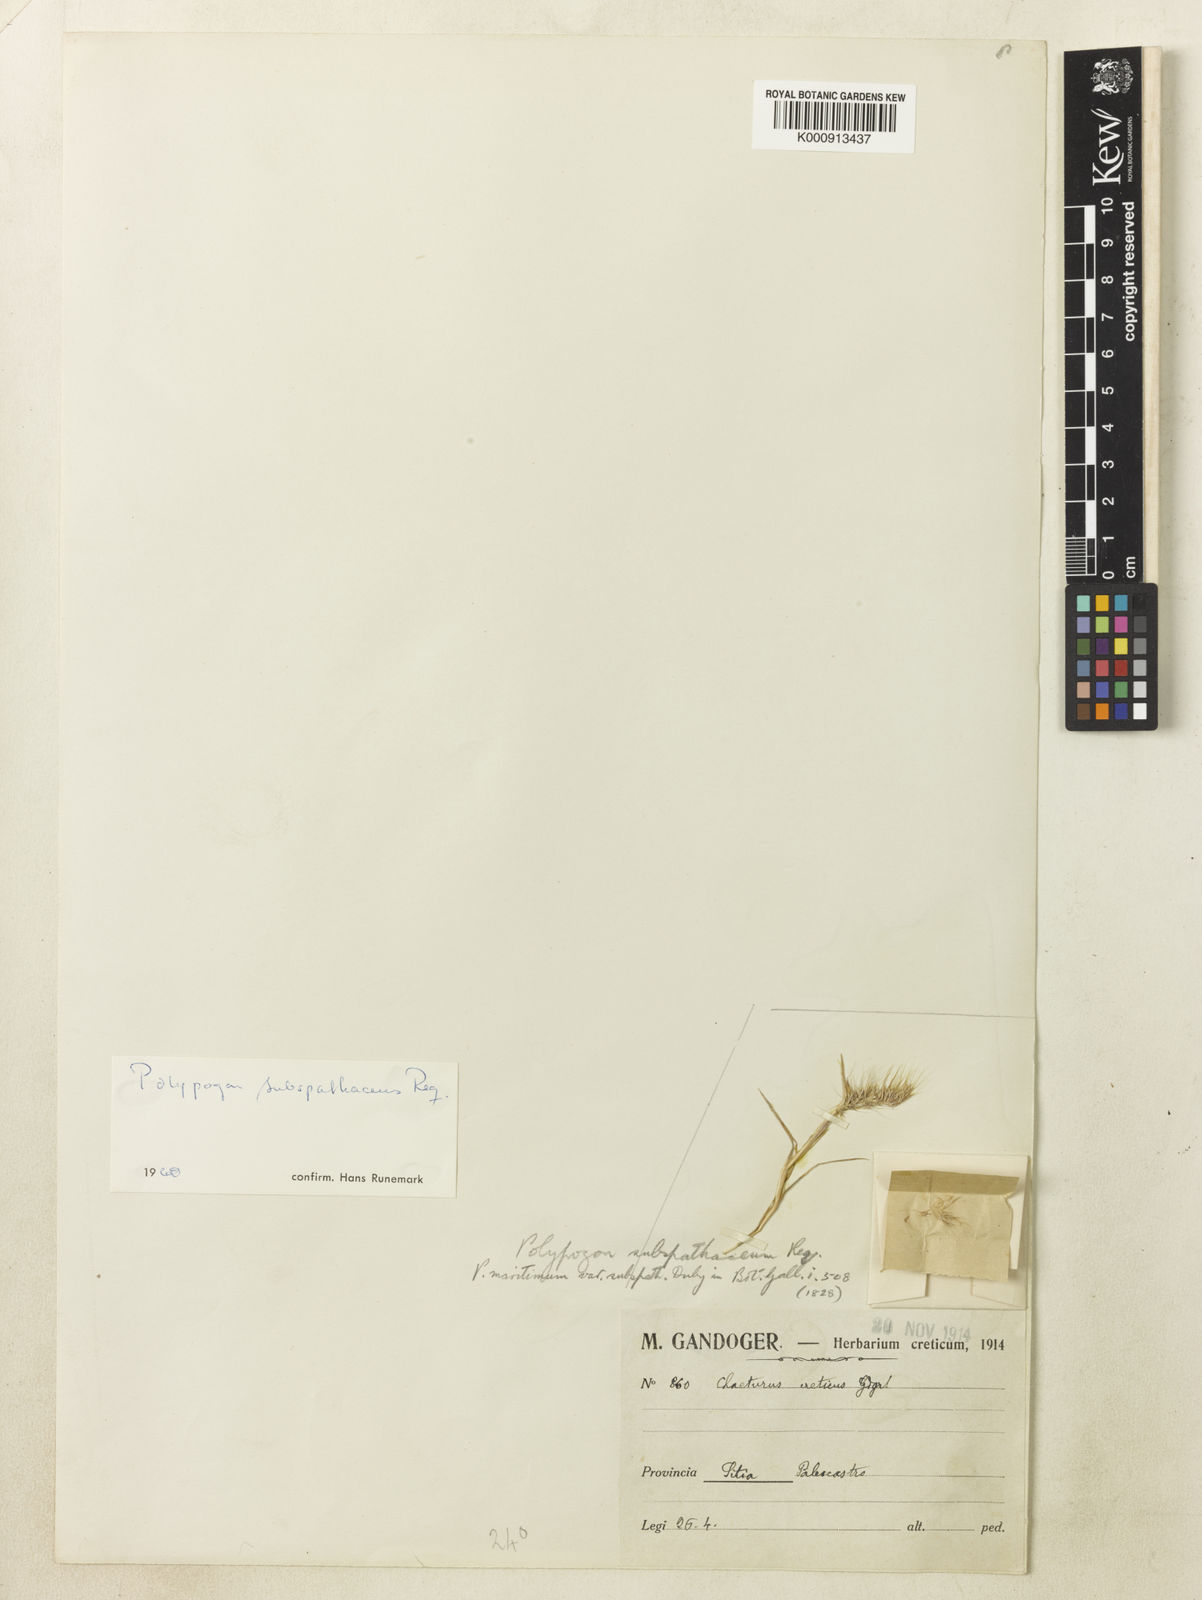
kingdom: Plantae
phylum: Tracheophyta
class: Liliopsida
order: Poales
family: Poaceae
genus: Polypogon
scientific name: Polypogon maritimus
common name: Mediterranean rabbitsfoot grass
